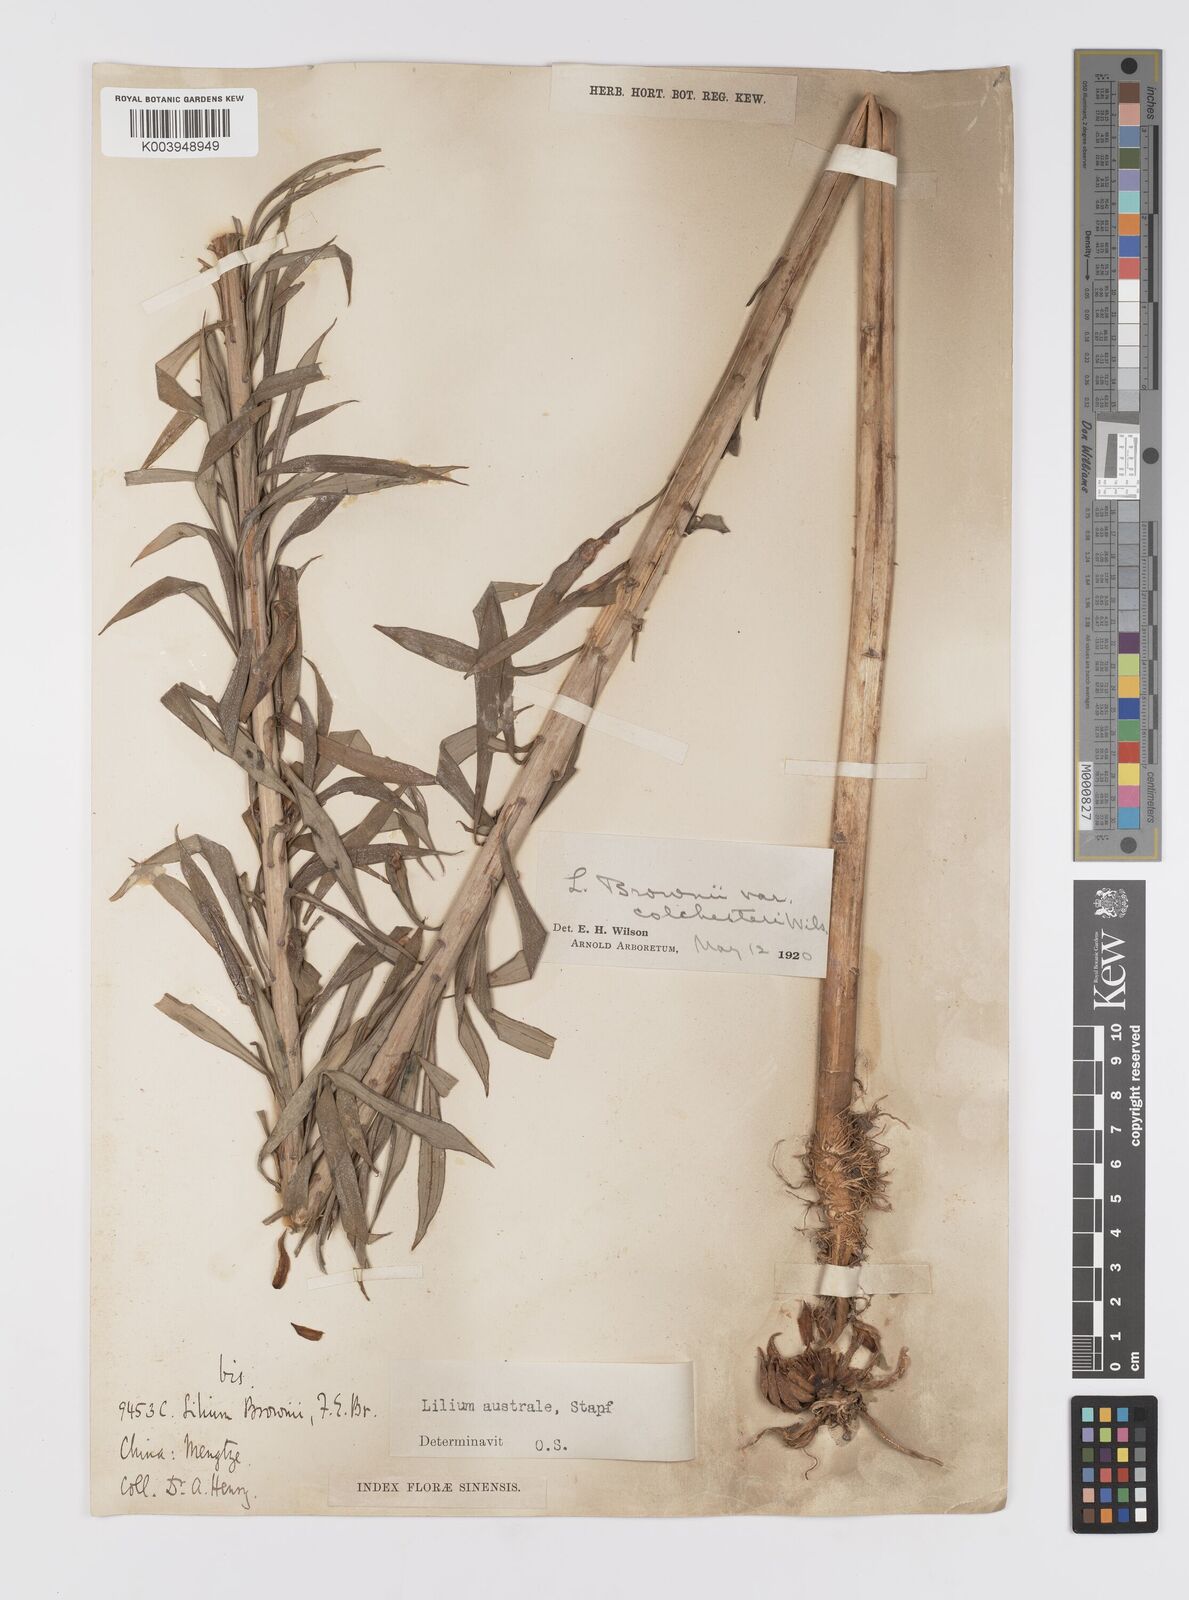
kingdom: Plantae
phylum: Tracheophyta
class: Liliopsida
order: Liliales
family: Liliaceae
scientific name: Liliaceae
